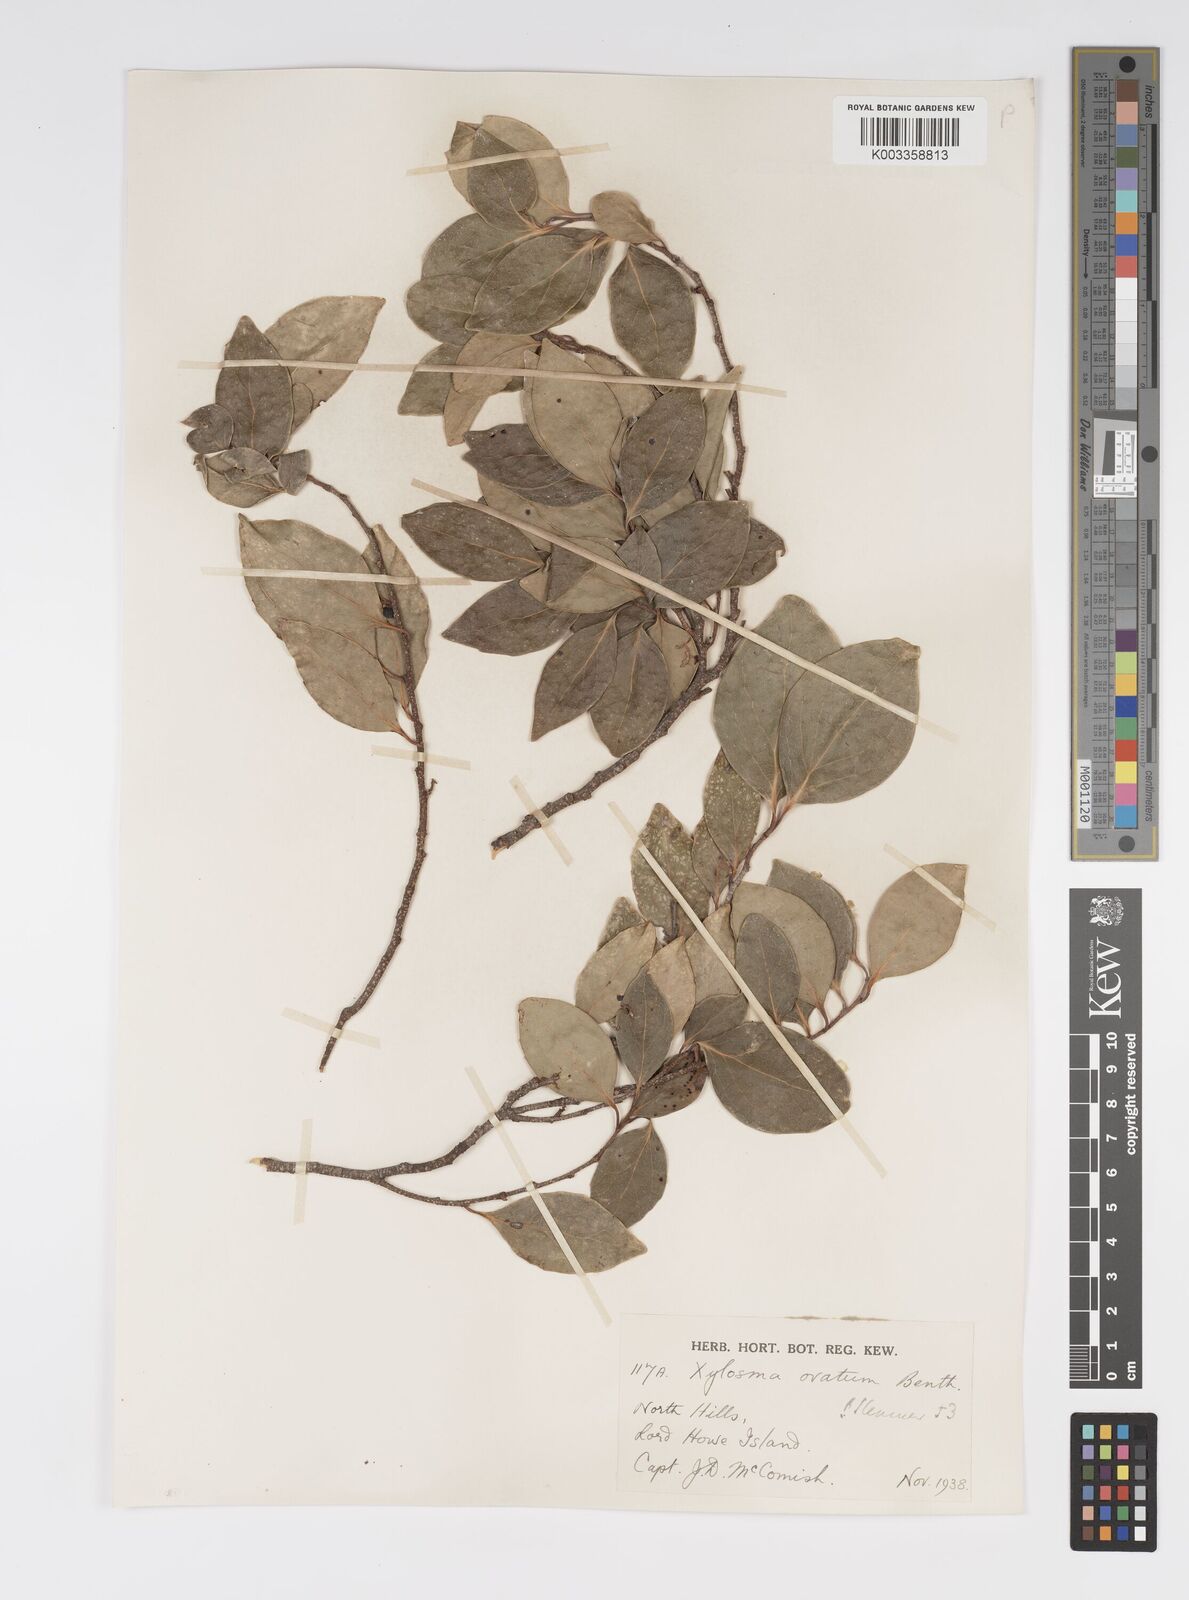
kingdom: Plantae
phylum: Tracheophyta
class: Magnoliopsida
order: Malpighiales
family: Salicaceae
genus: Xylosma
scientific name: Xylosma maidenii
